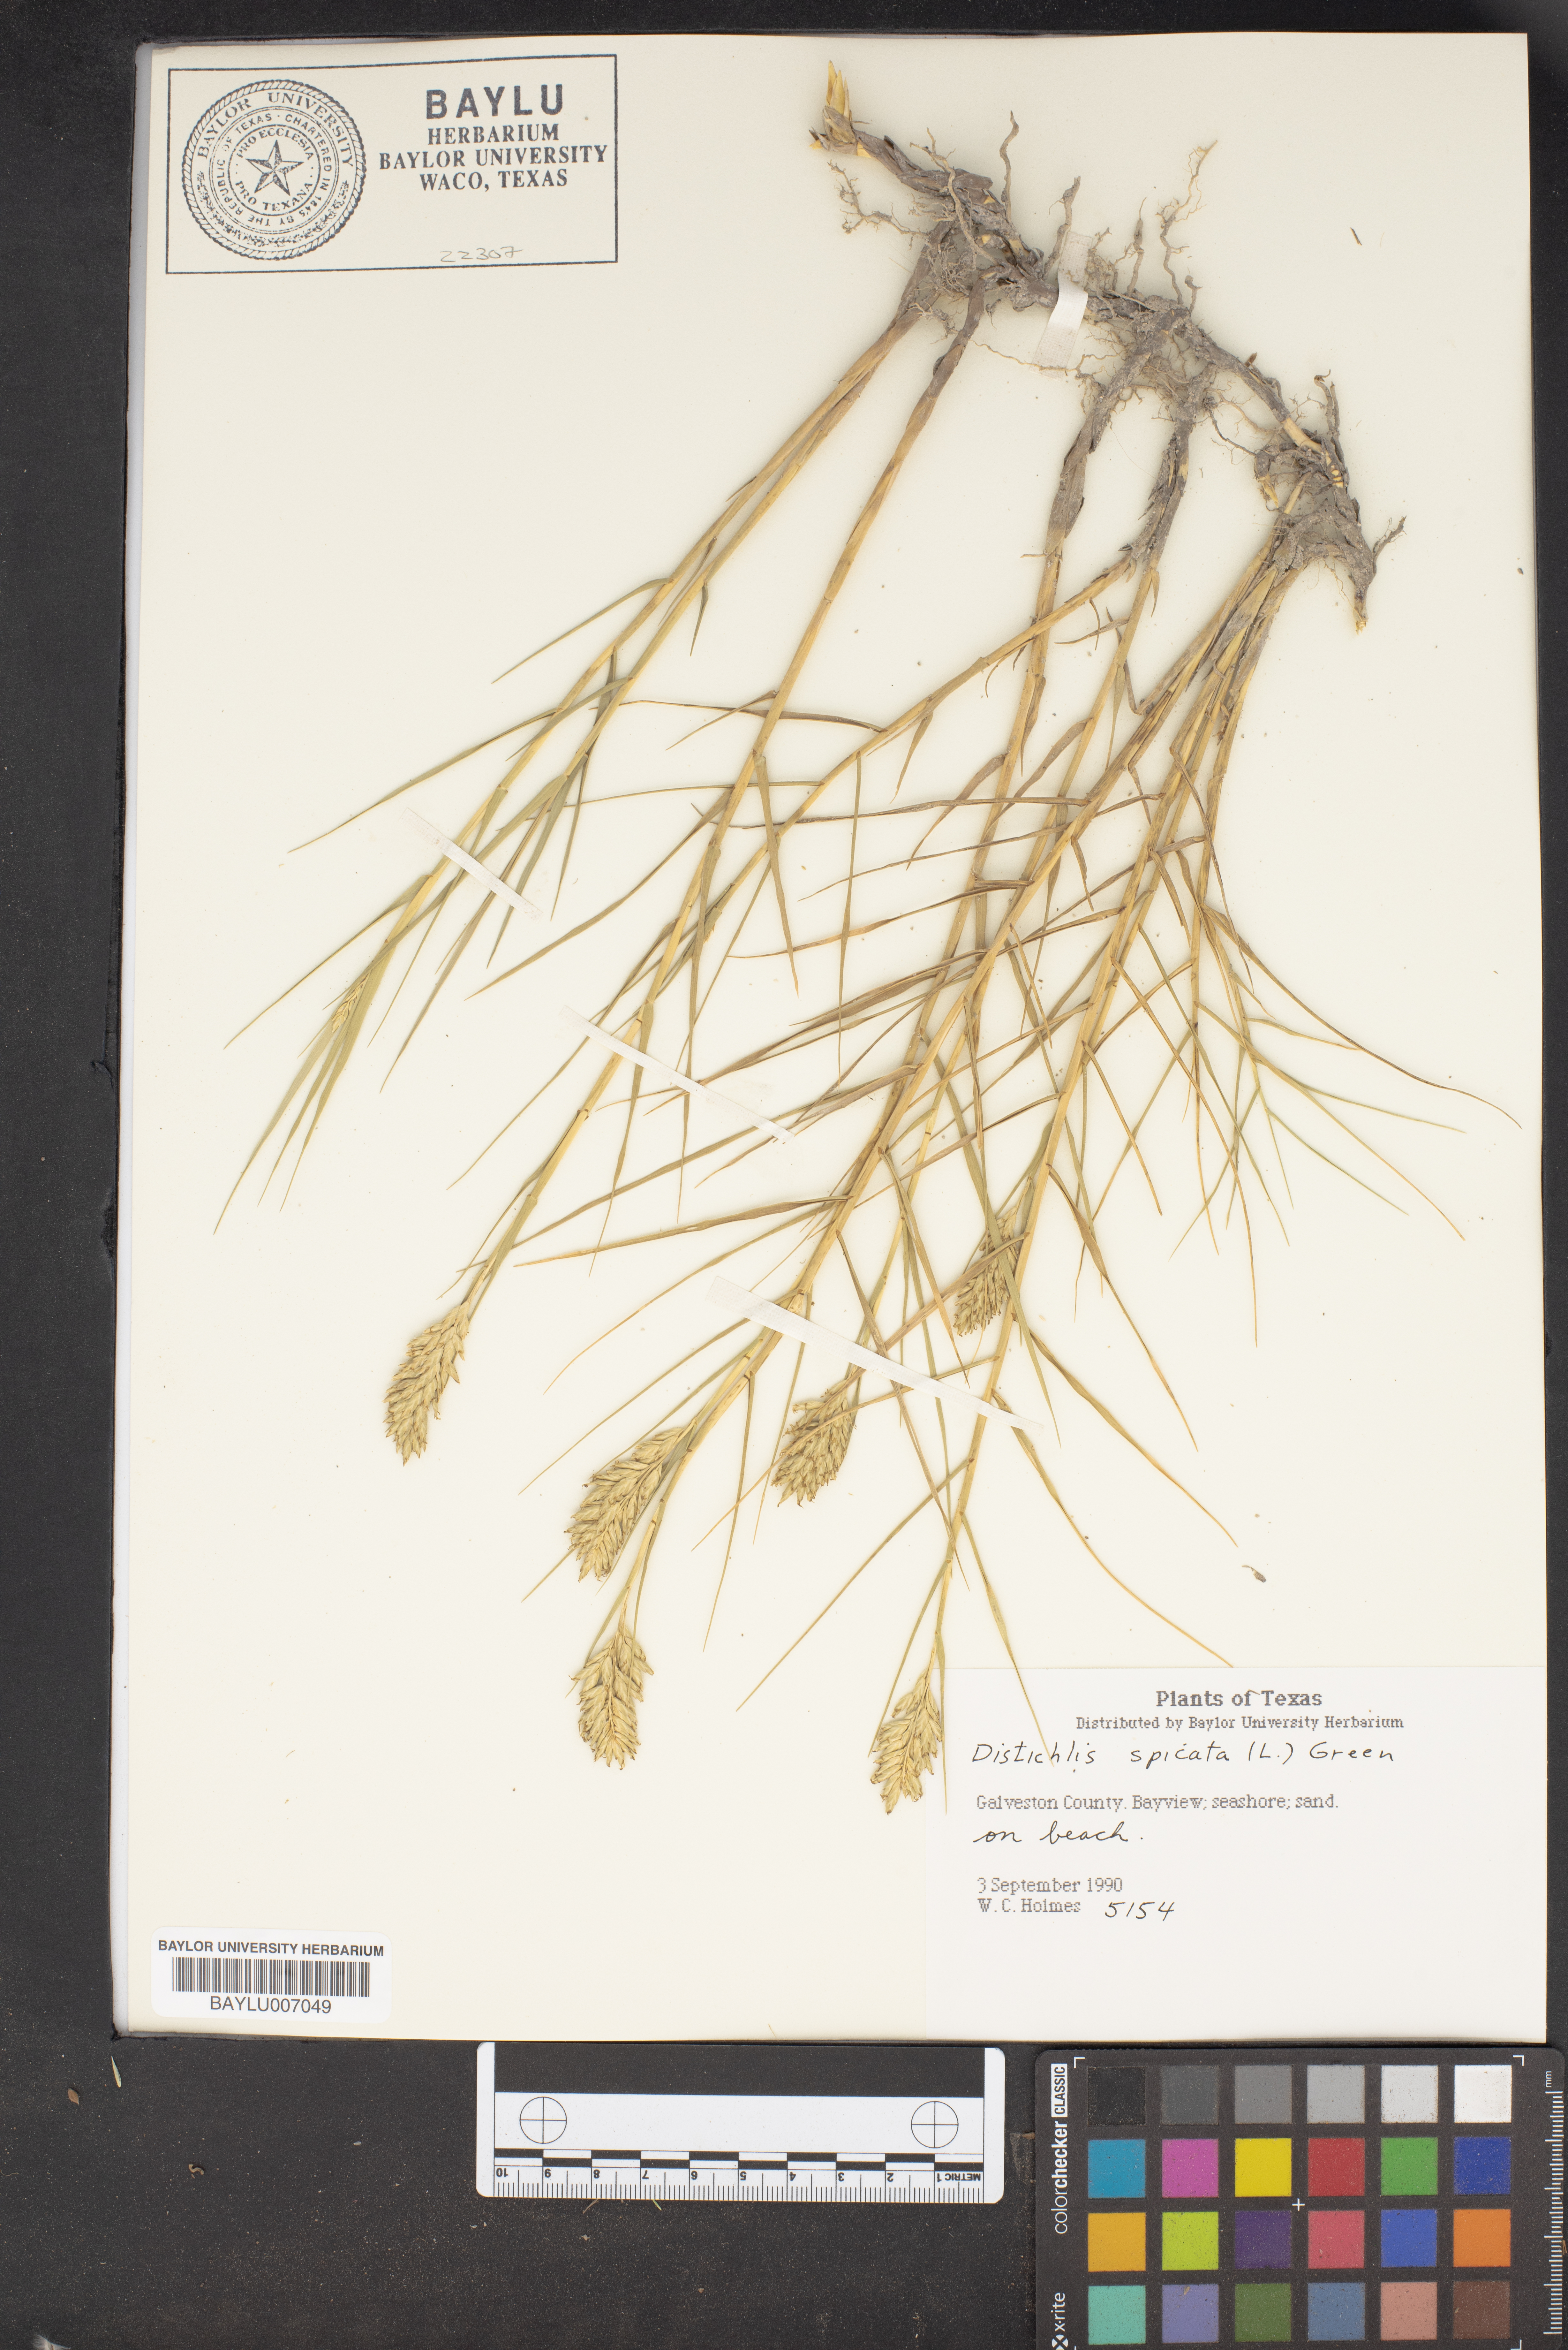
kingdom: Plantae
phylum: Tracheophyta
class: Liliopsida
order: Poales
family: Poaceae
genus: Distichlis
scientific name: Distichlis spicata
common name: Saltgrass
